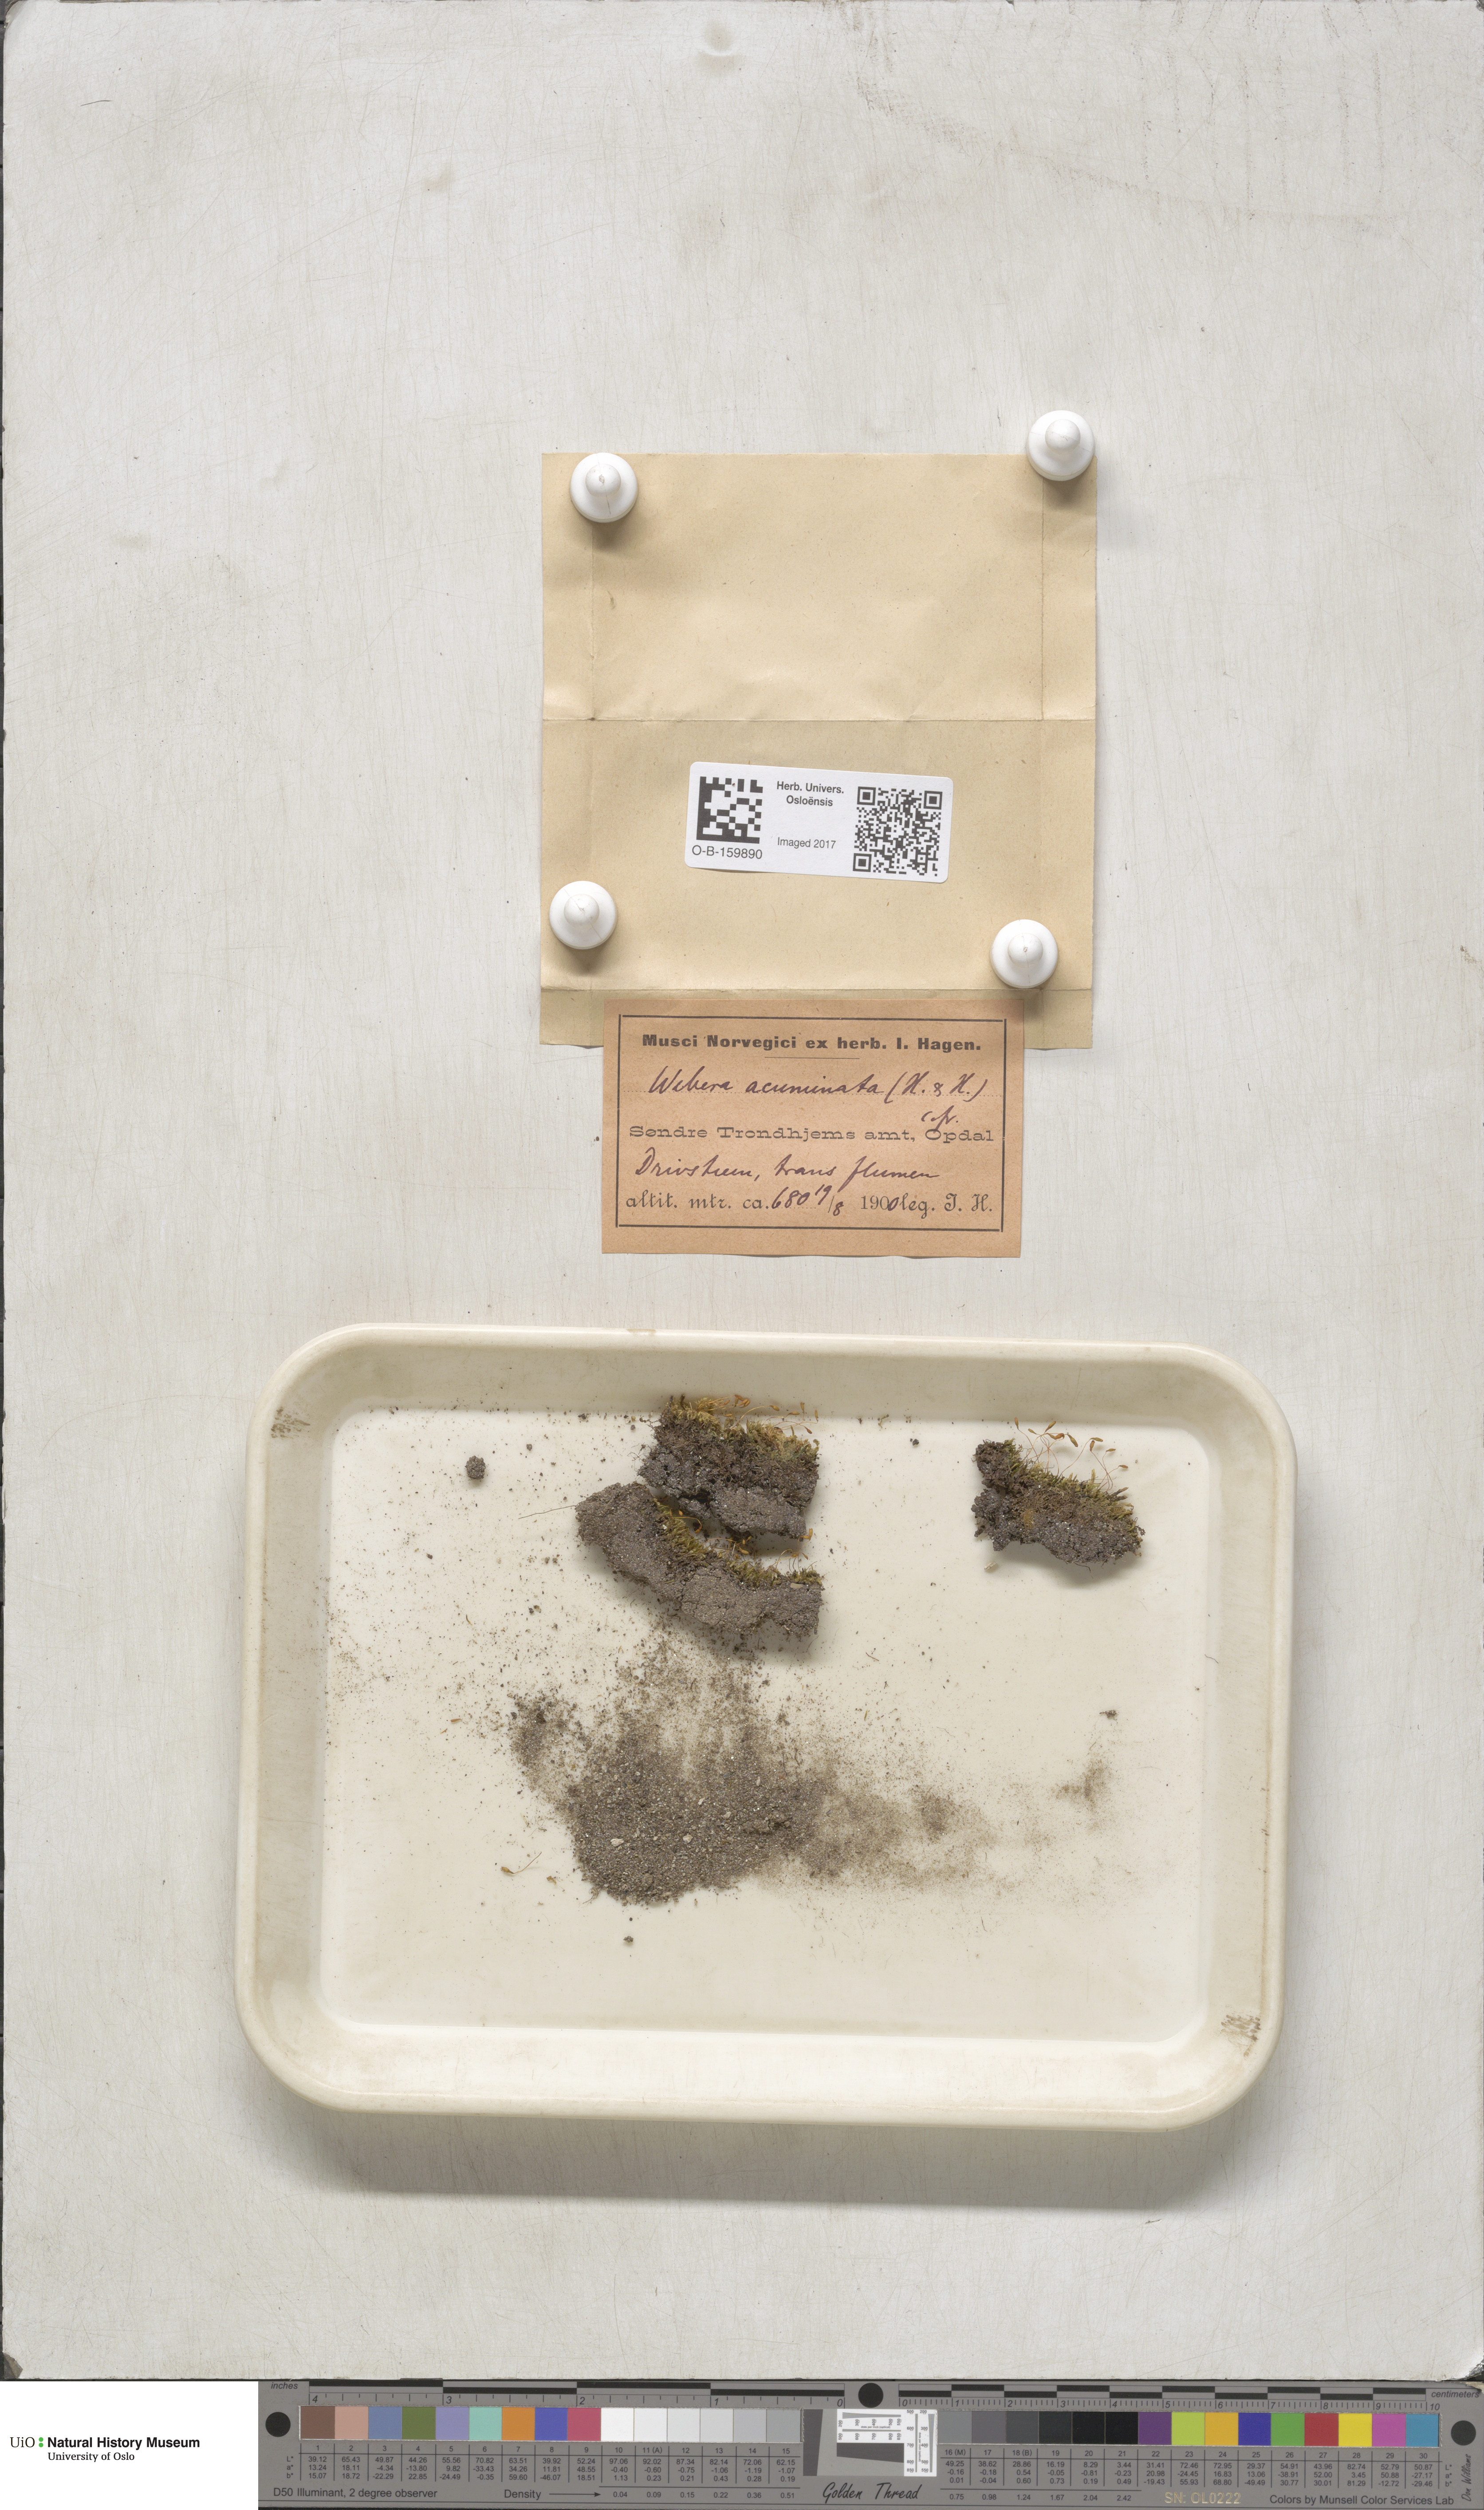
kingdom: Plantae
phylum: Bryophyta
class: Bryopsida
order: Bryales
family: Mniaceae
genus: Pohlia
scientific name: Pohlia elongata
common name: Long-fruited thread-moss
